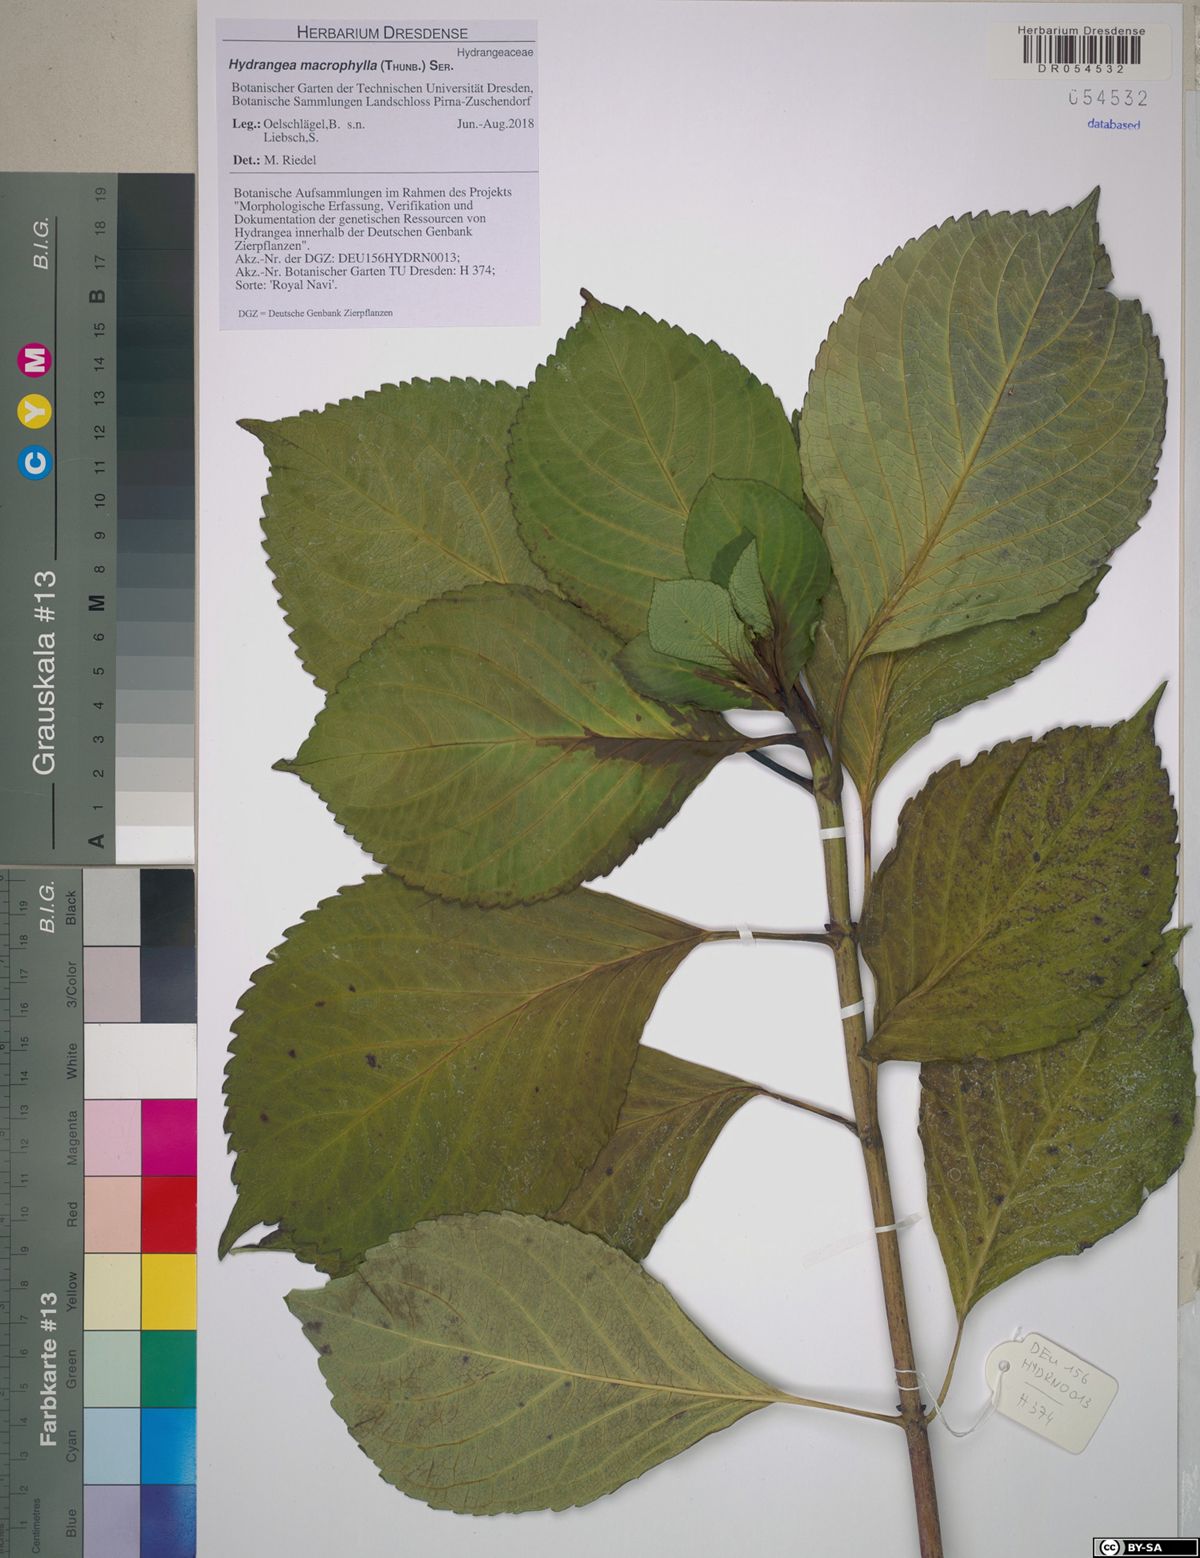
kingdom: Plantae
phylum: Tracheophyta
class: Magnoliopsida
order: Cornales
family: Hydrangeaceae
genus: Hydrangea
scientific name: Hydrangea macrophylla
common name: Hydrangea
